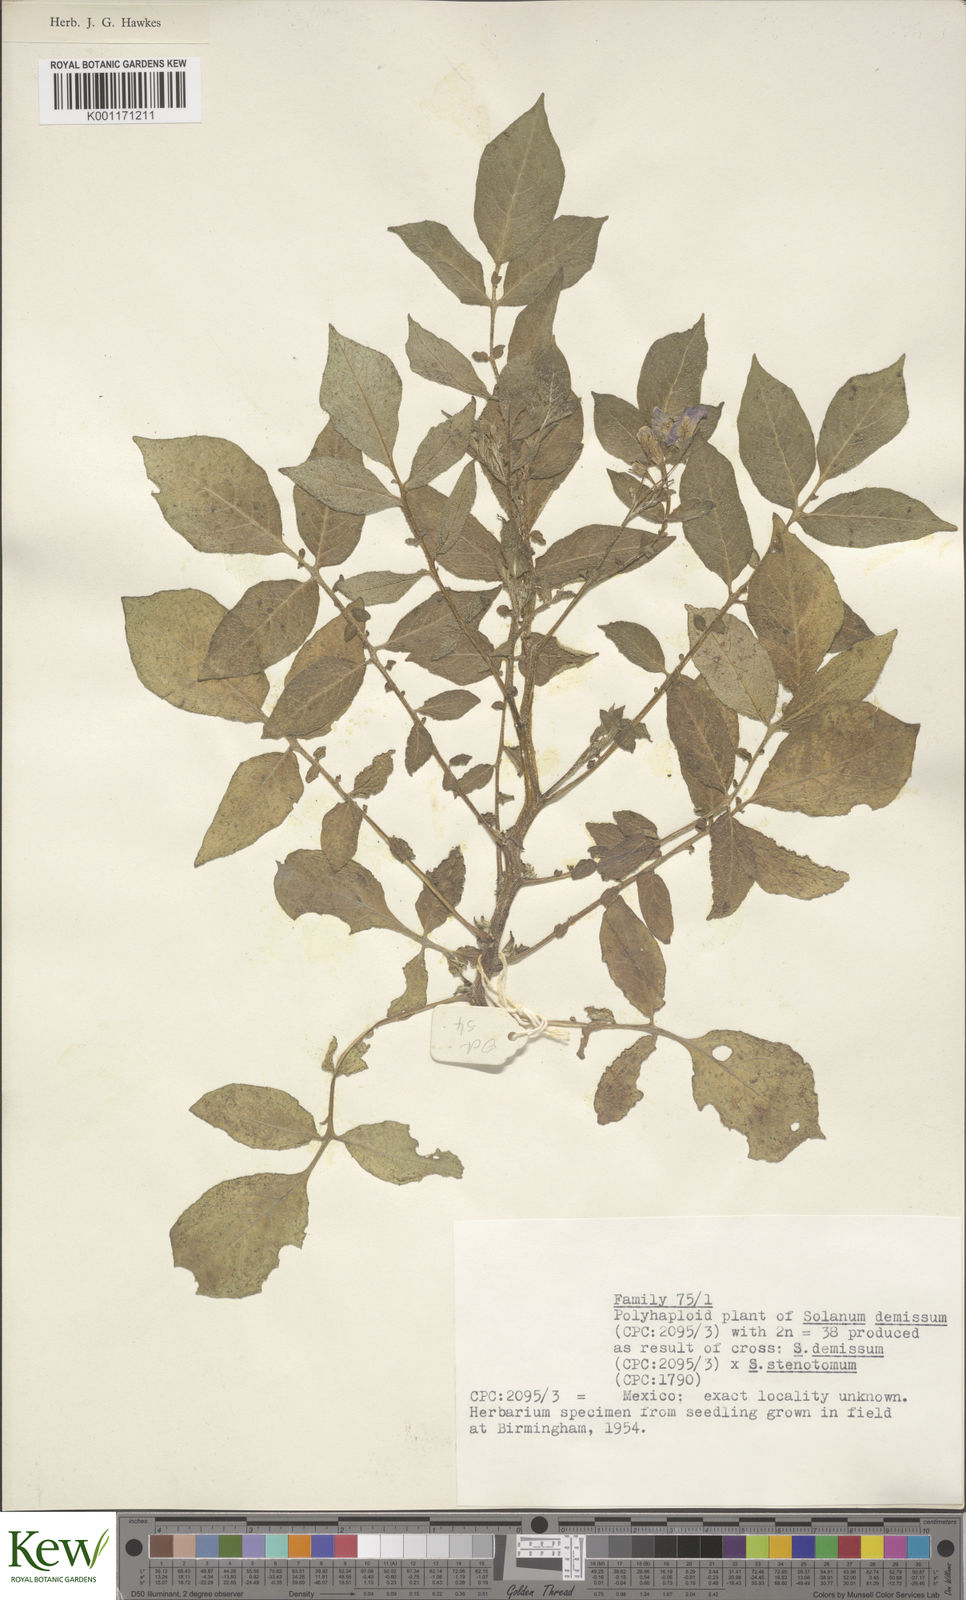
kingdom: Plantae
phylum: Tracheophyta
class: Magnoliopsida
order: Solanales
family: Solanaceae
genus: Solanum
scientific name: Solanum demissum
